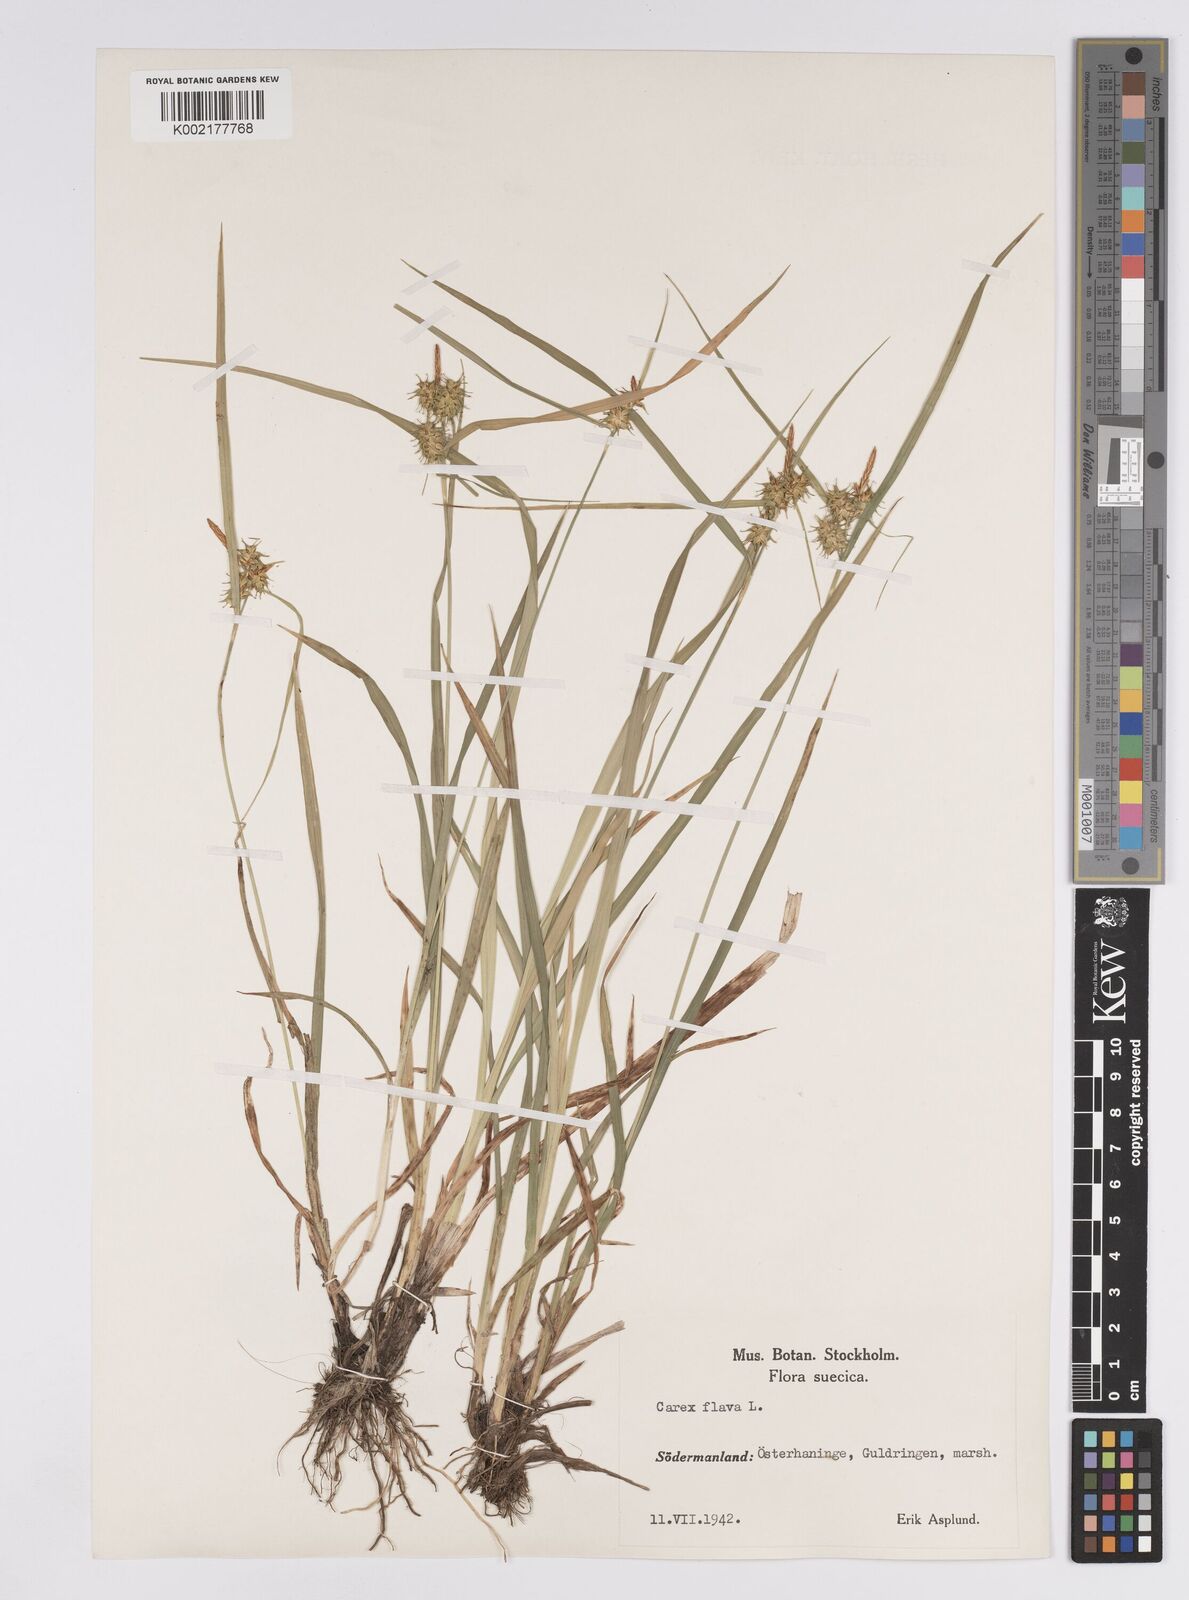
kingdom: Plantae
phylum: Tracheophyta
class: Liliopsida
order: Poales
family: Cyperaceae
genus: Carex
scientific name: Carex flava
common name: Large yellow-sedge
